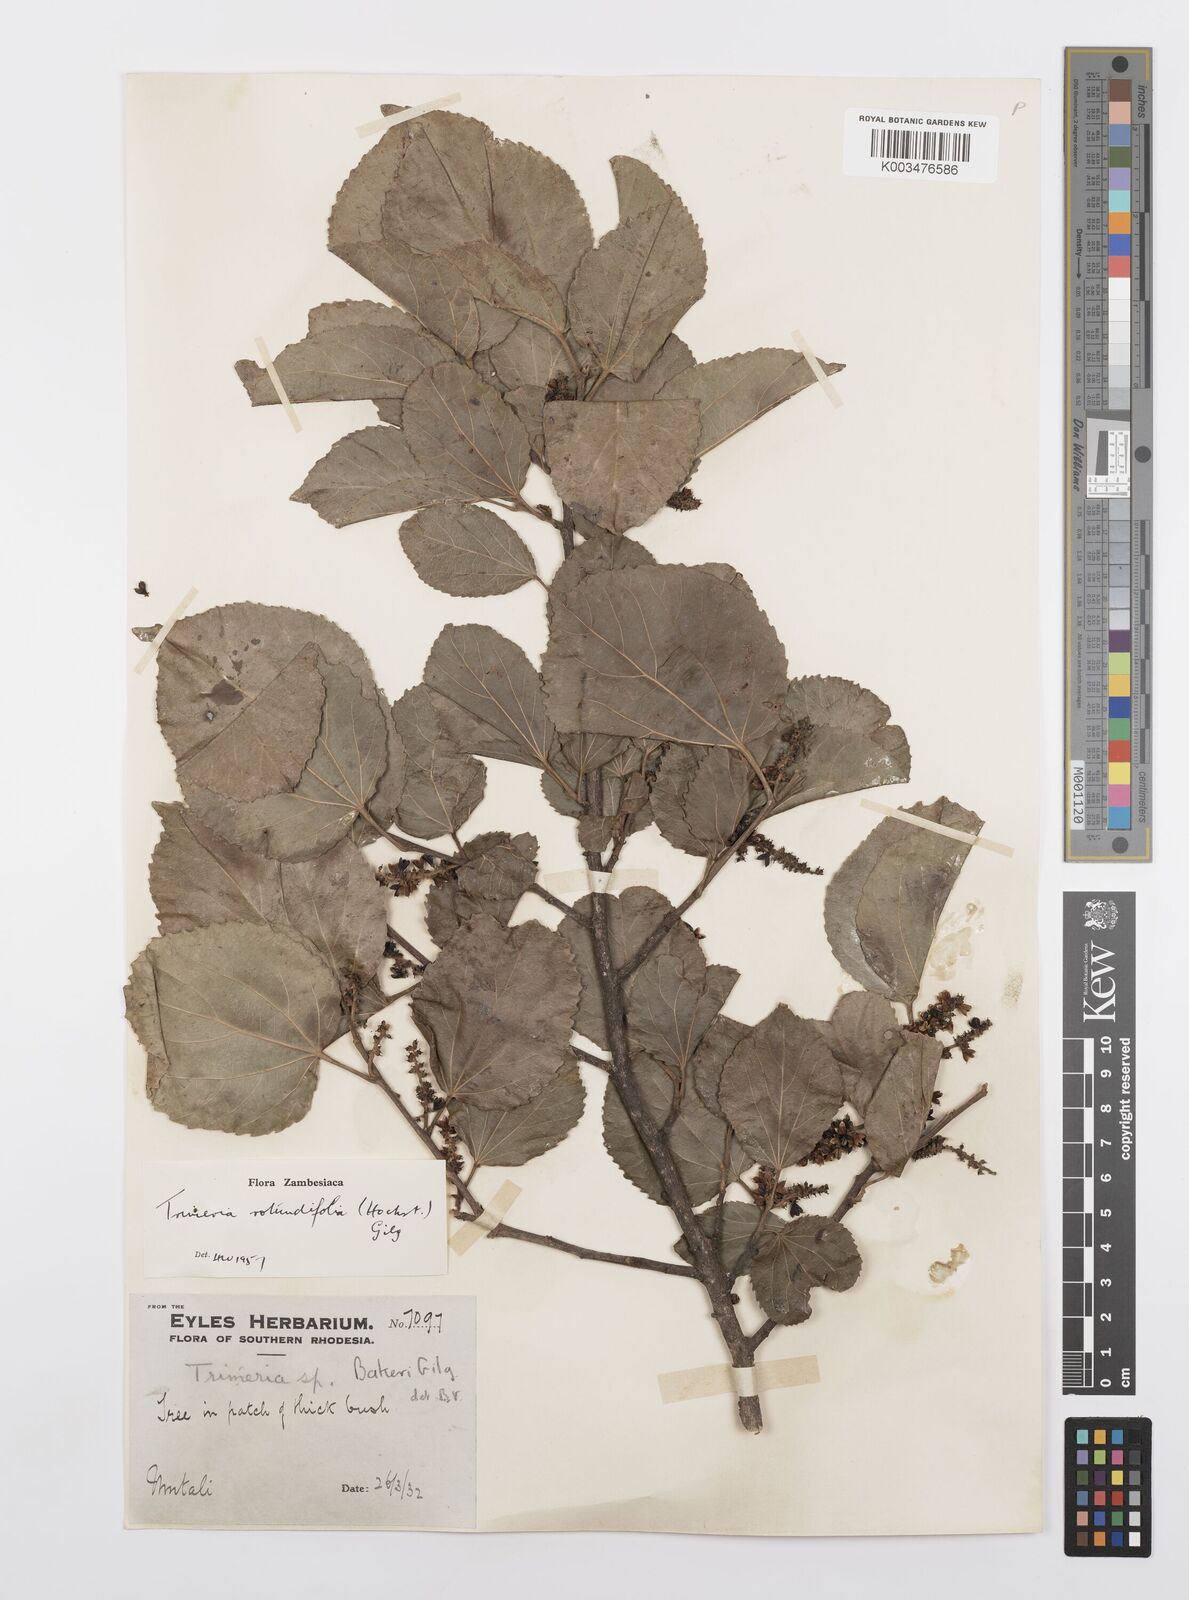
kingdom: Plantae
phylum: Tracheophyta
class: Magnoliopsida
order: Malpighiales
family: Salicaceae
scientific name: Salicaceae
